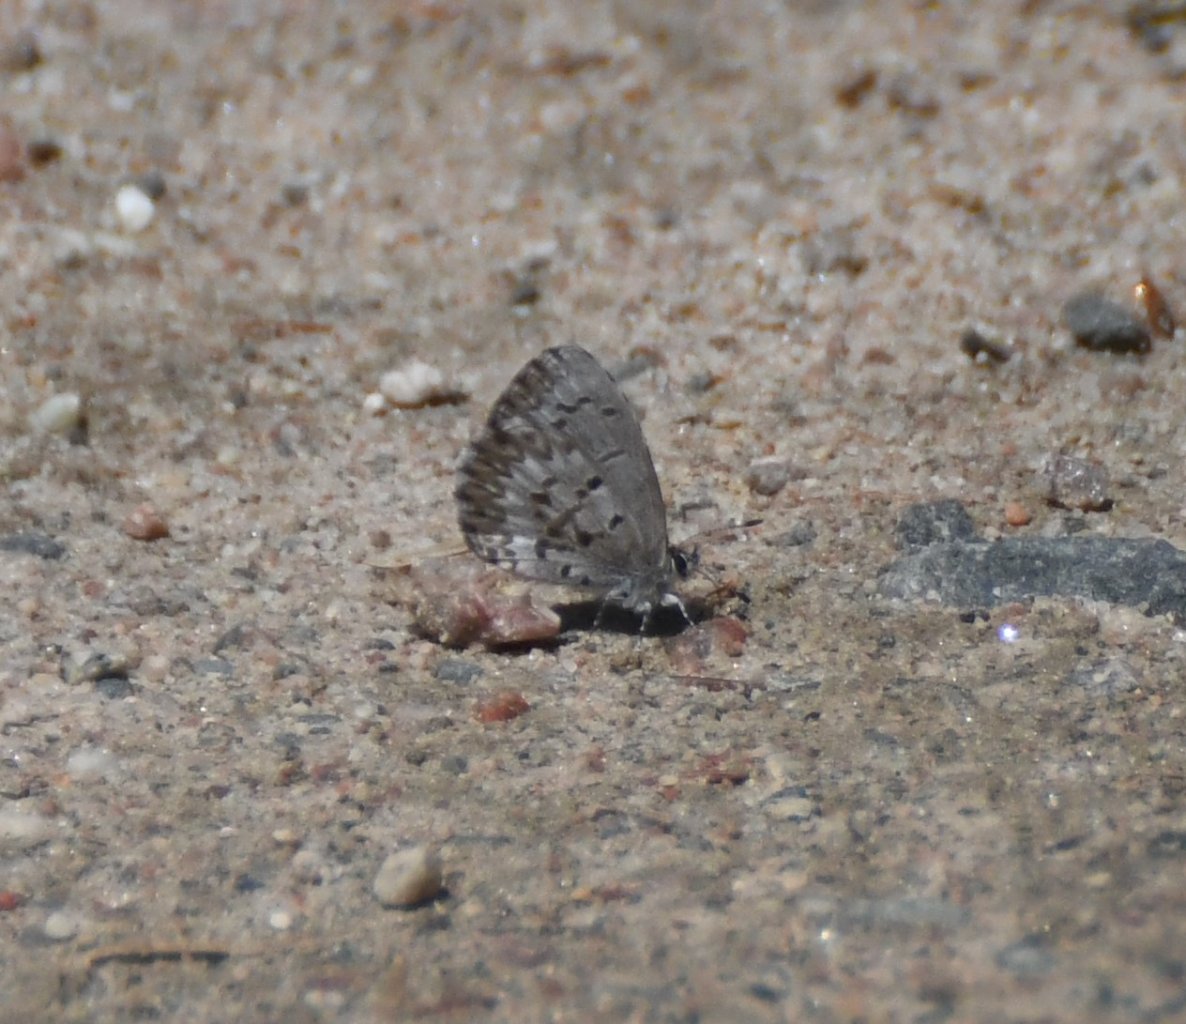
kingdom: Animalia
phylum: Arthropoda
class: Insecta
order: Lepidoptera
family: Lycaenidae
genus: Celastrina
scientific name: Celastrina lucia
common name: Northern Spring Azure
